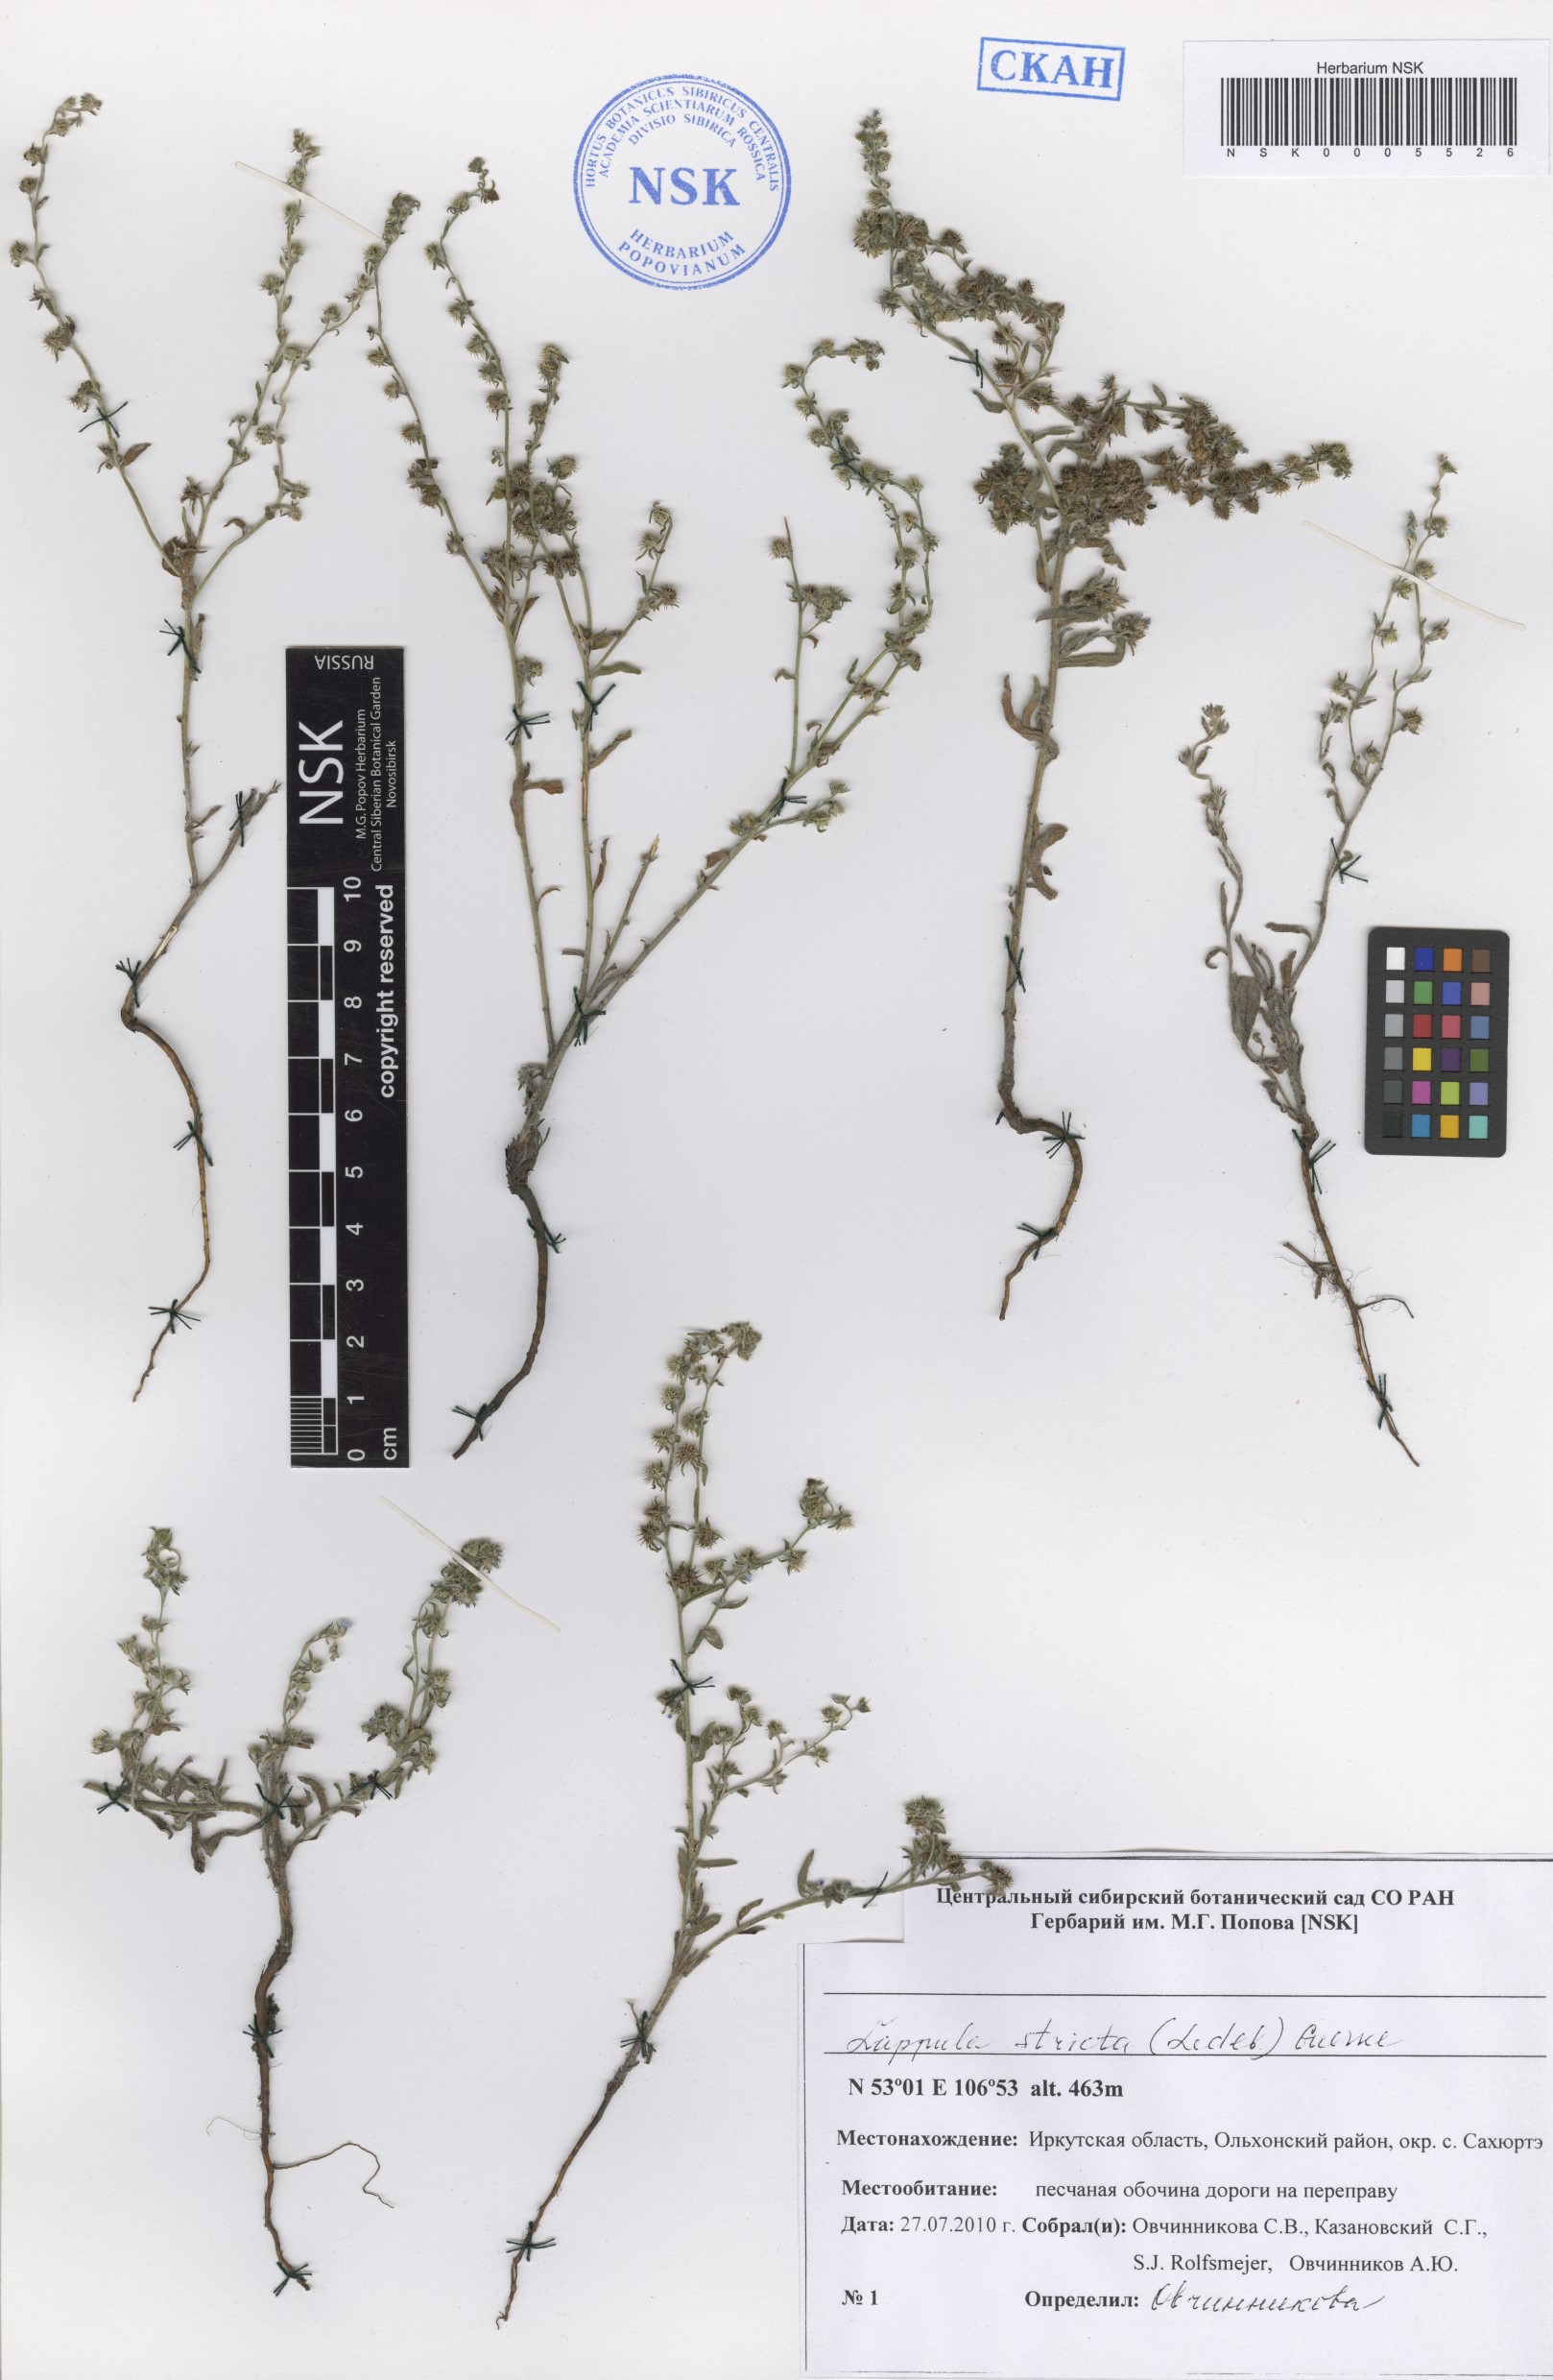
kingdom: Plantae
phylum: Tracheophyta
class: Magnoliopsida
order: Boraginales
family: Boraginaceae
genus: Lappula
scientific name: Lappula stricta
